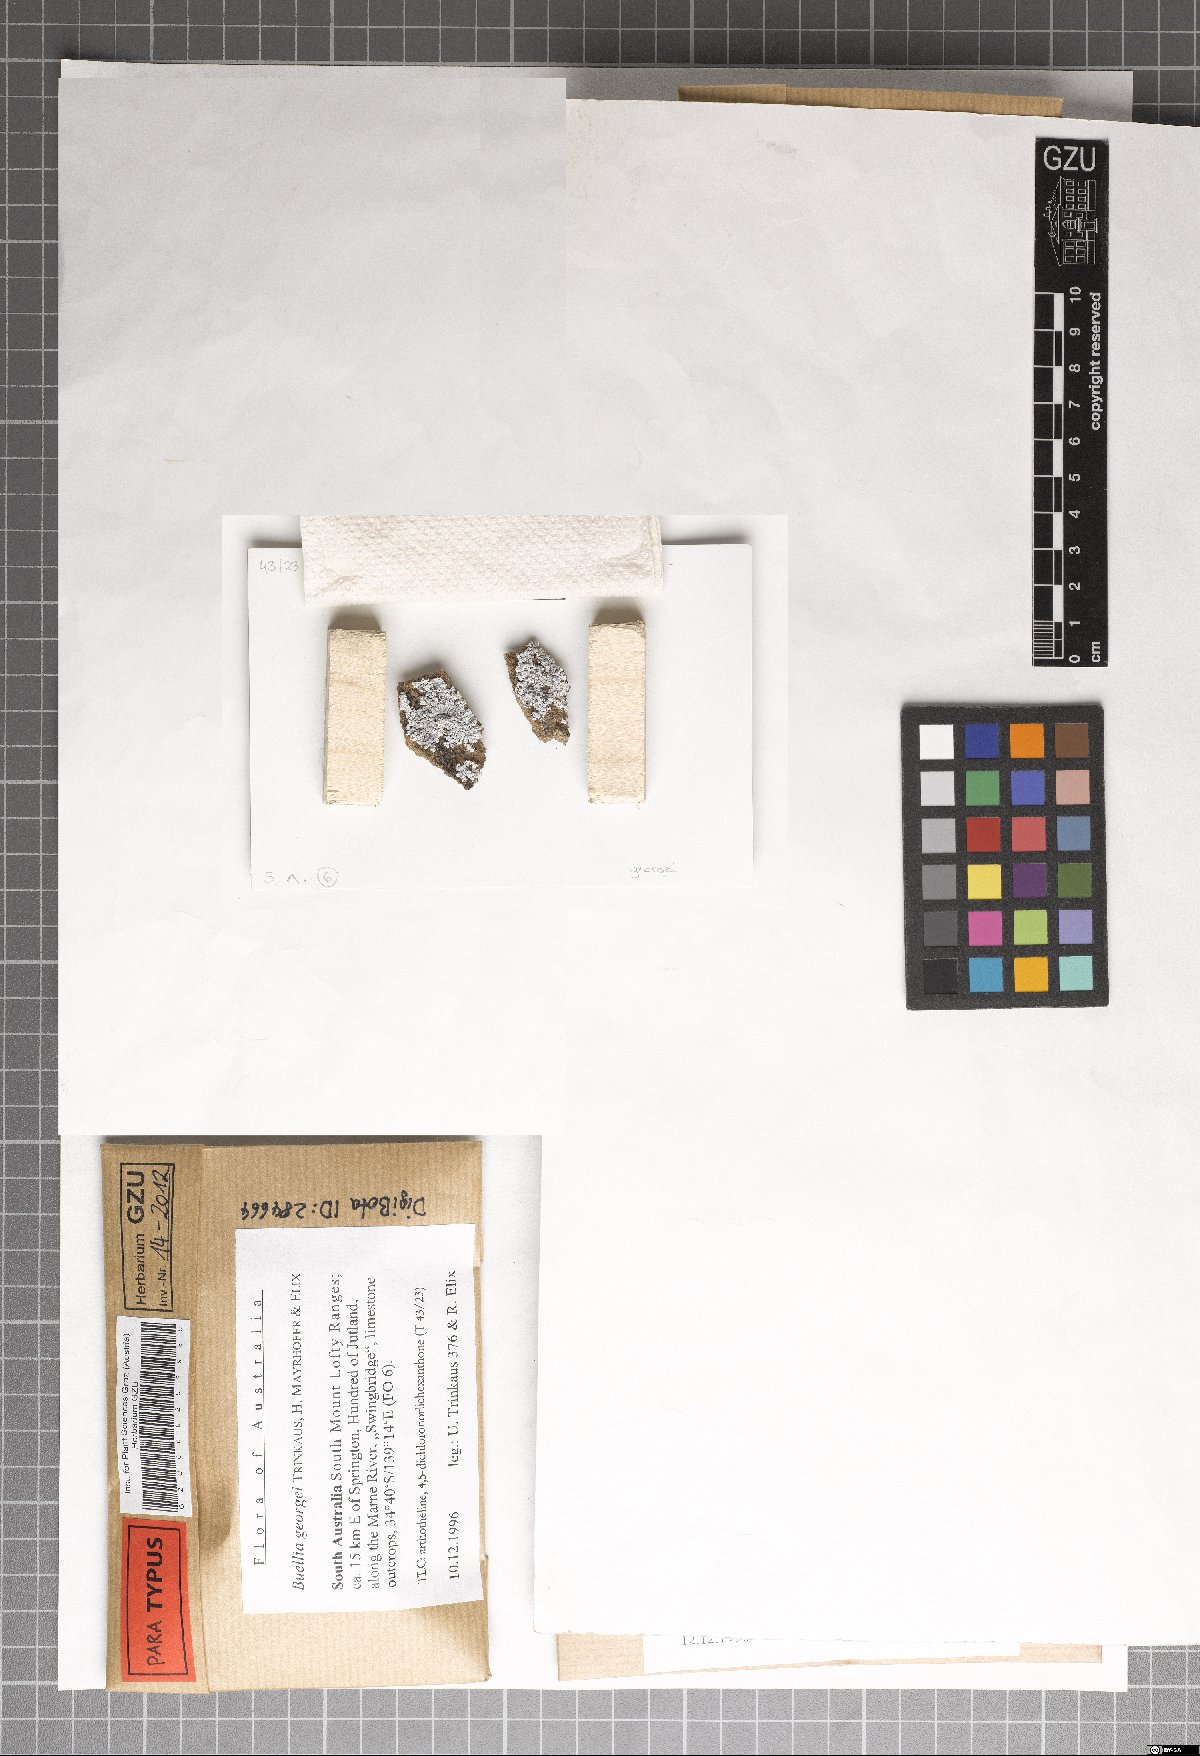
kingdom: Fungi
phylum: Ascomycota
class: Lecanoromycetes
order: Caliciales
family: Caliciaceae
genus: Buellia
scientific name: Buellia georgei
